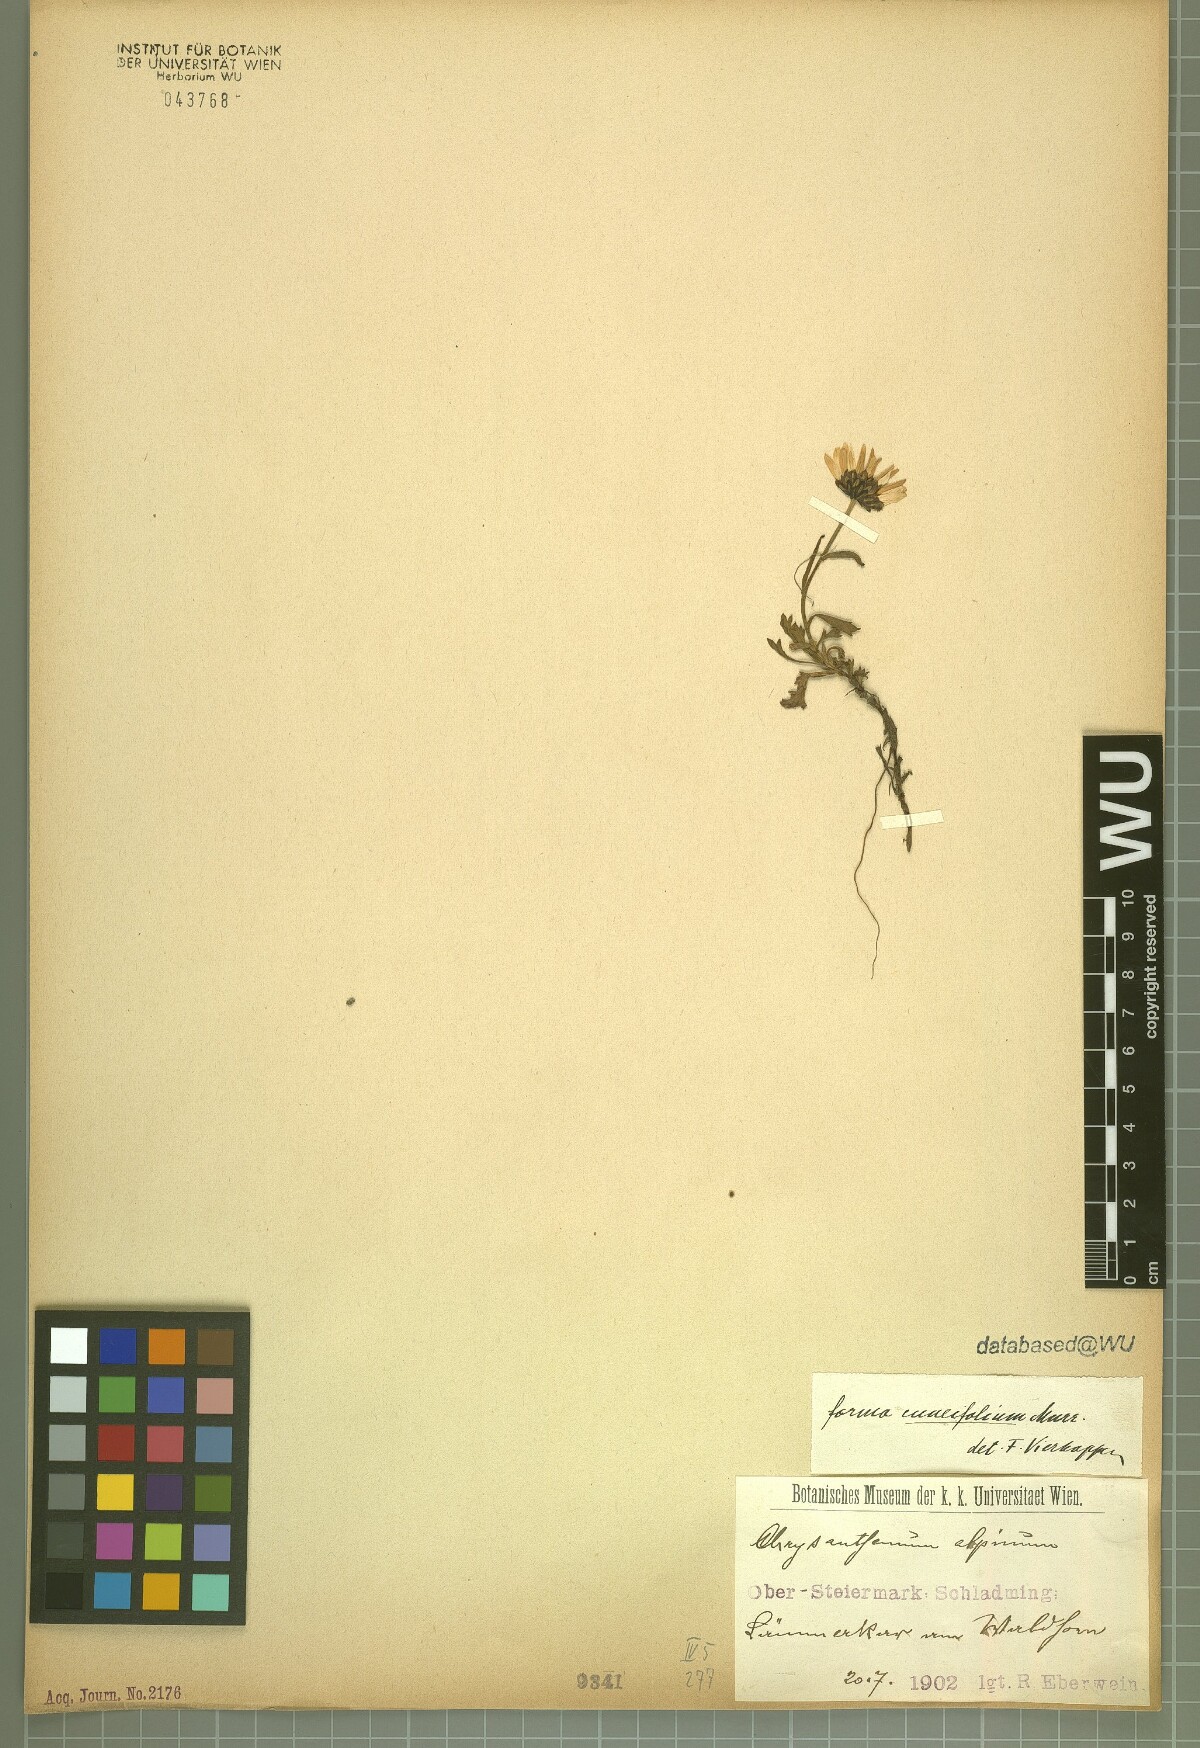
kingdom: Plantae
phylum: Tracheophyta
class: Magnoliopsida
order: Asterales
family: Asteraceae
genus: Leucanthemopsis
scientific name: Leucanthemopsis alpina
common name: Alpine moon daisy
